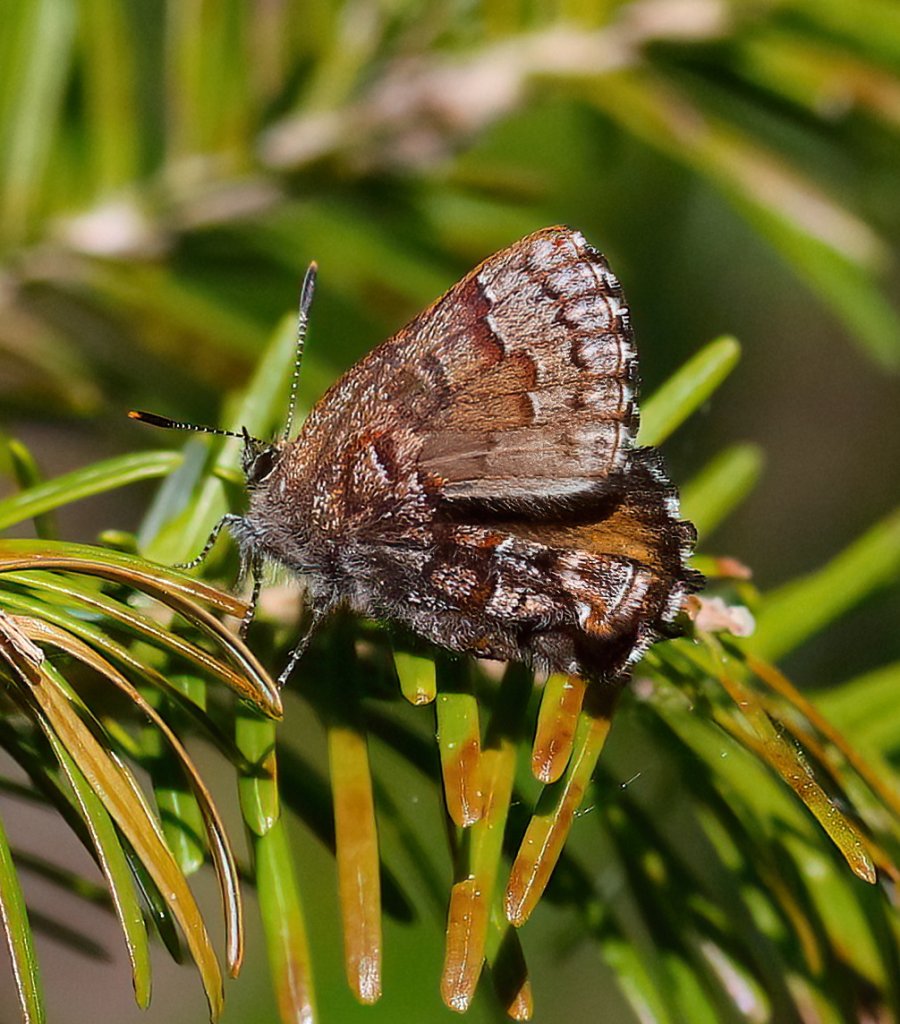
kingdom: Animalia
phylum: Arthropoda
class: Insecta
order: Lepidoptera
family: Lycaenidae
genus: Incisalia
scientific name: Incisalia niphon
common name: Eastern Pine Elfin
